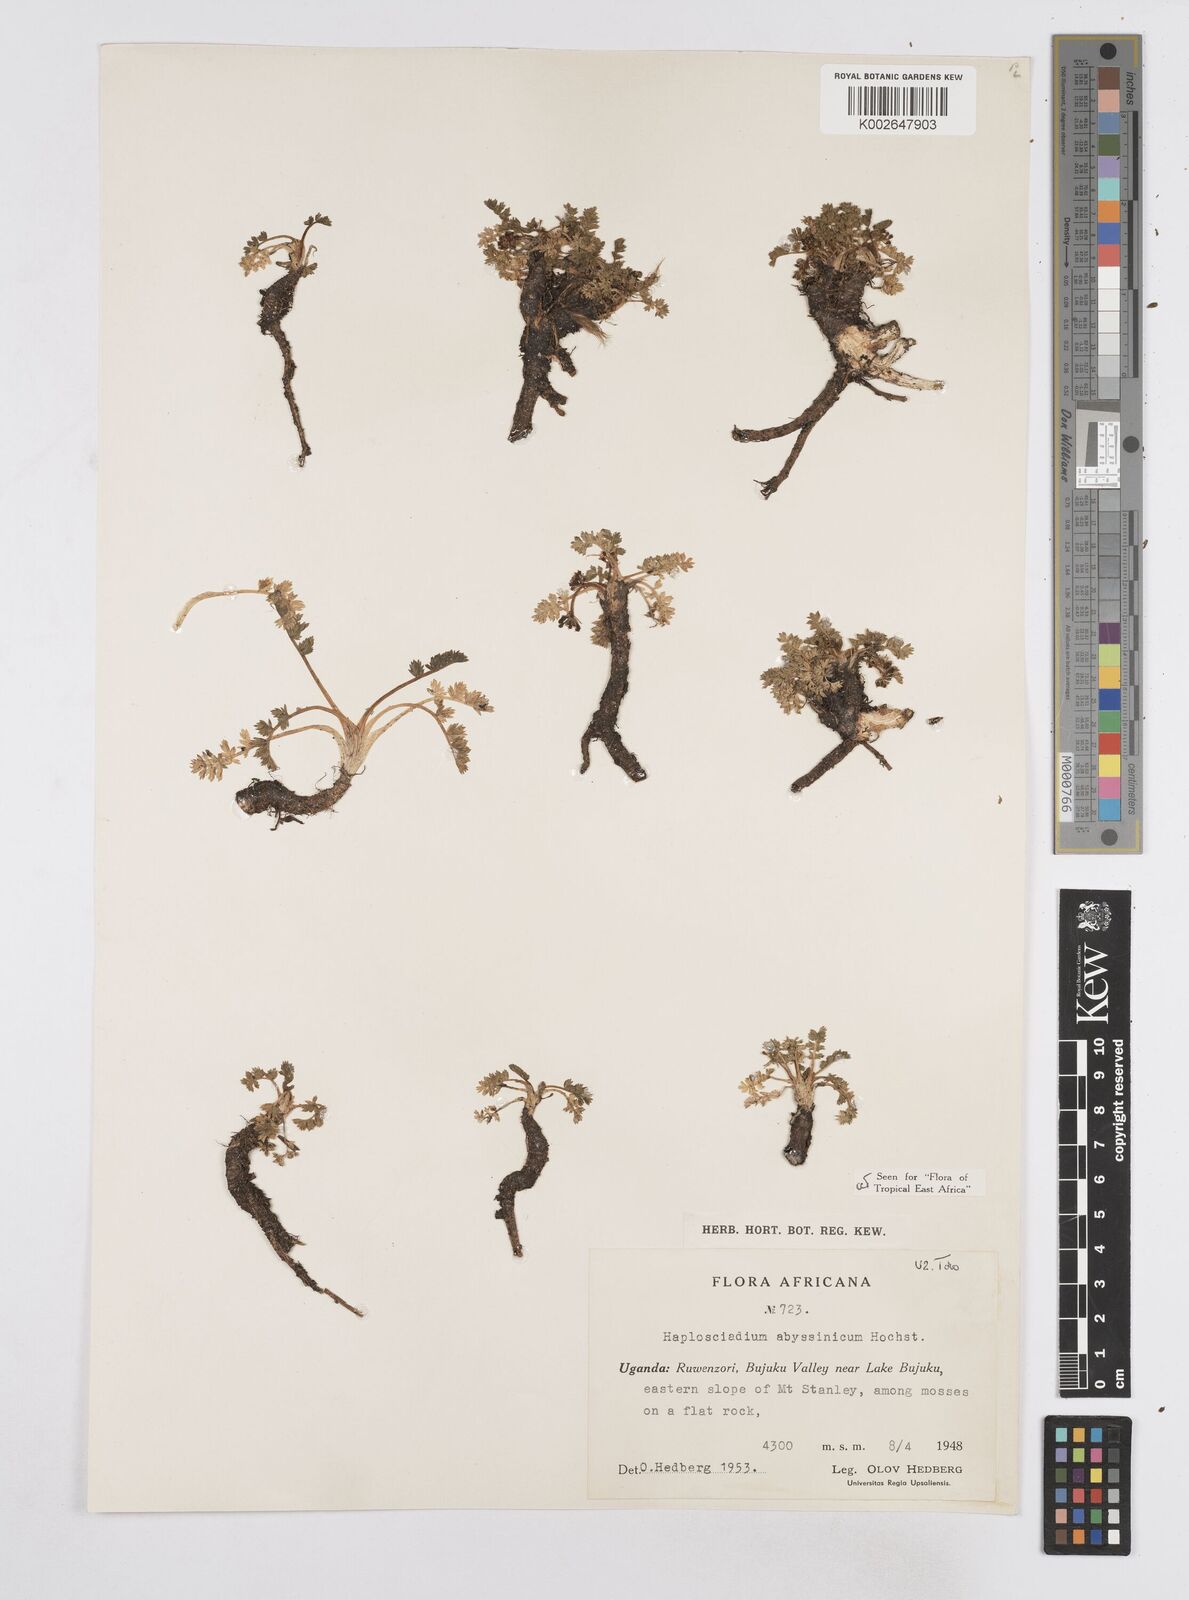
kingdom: Plantae
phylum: Tracheophyta
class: Magnoliopsida
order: Apiales
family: Apiaceae
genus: Haplosciadium
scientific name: Haplosciadium abyssinicum
